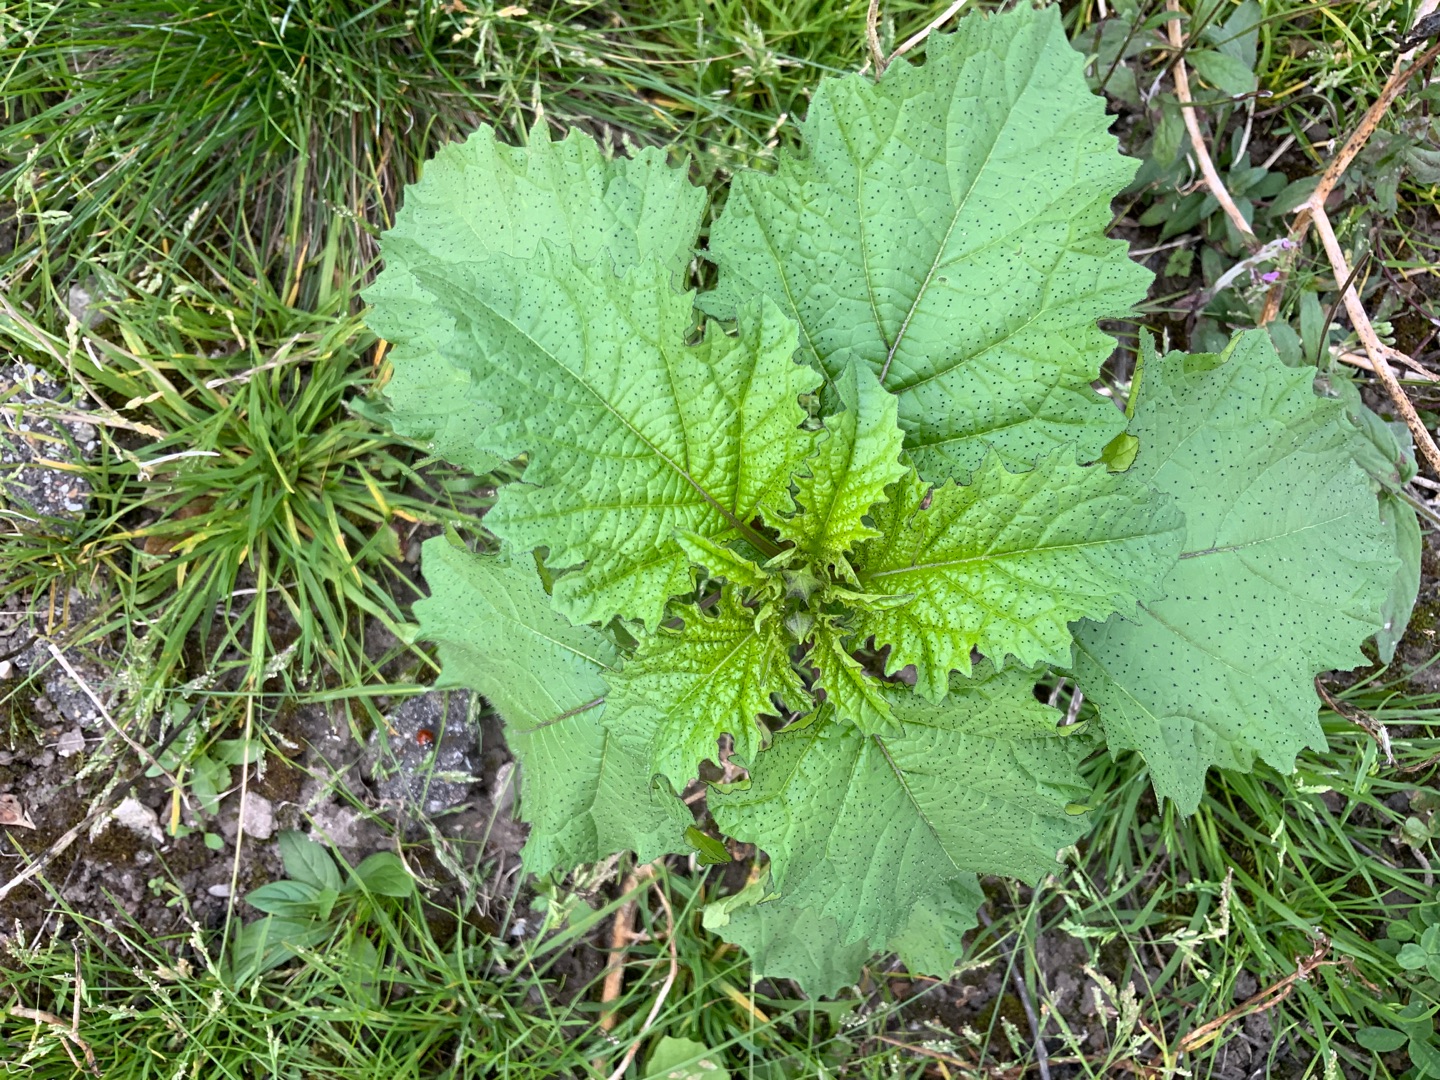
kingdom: Plantae
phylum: Tracheophyta
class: Magnoliopsida
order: Solanales
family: Solanaceae
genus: Nicandra
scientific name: Nicandra physalodes
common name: Kantbæger
